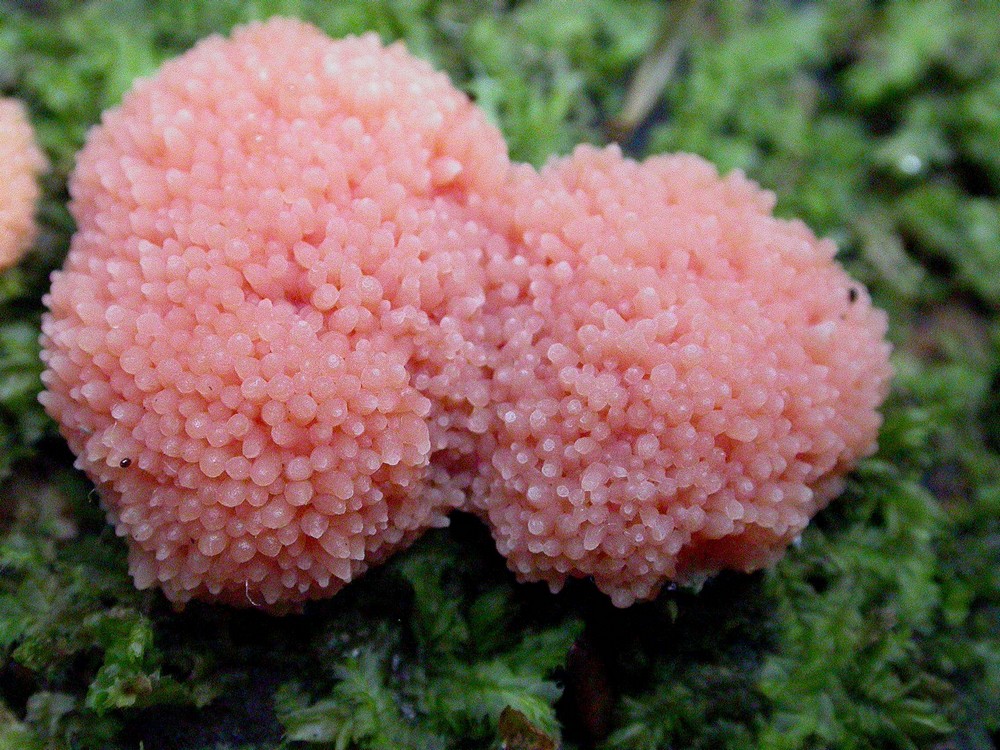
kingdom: Protozoa
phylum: Mycetozoa
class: Myxomycetes
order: Cribrariales
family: Tubiferaceae
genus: Tubifera
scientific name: Tubifera ferruginosa
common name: kanel-støvrør
